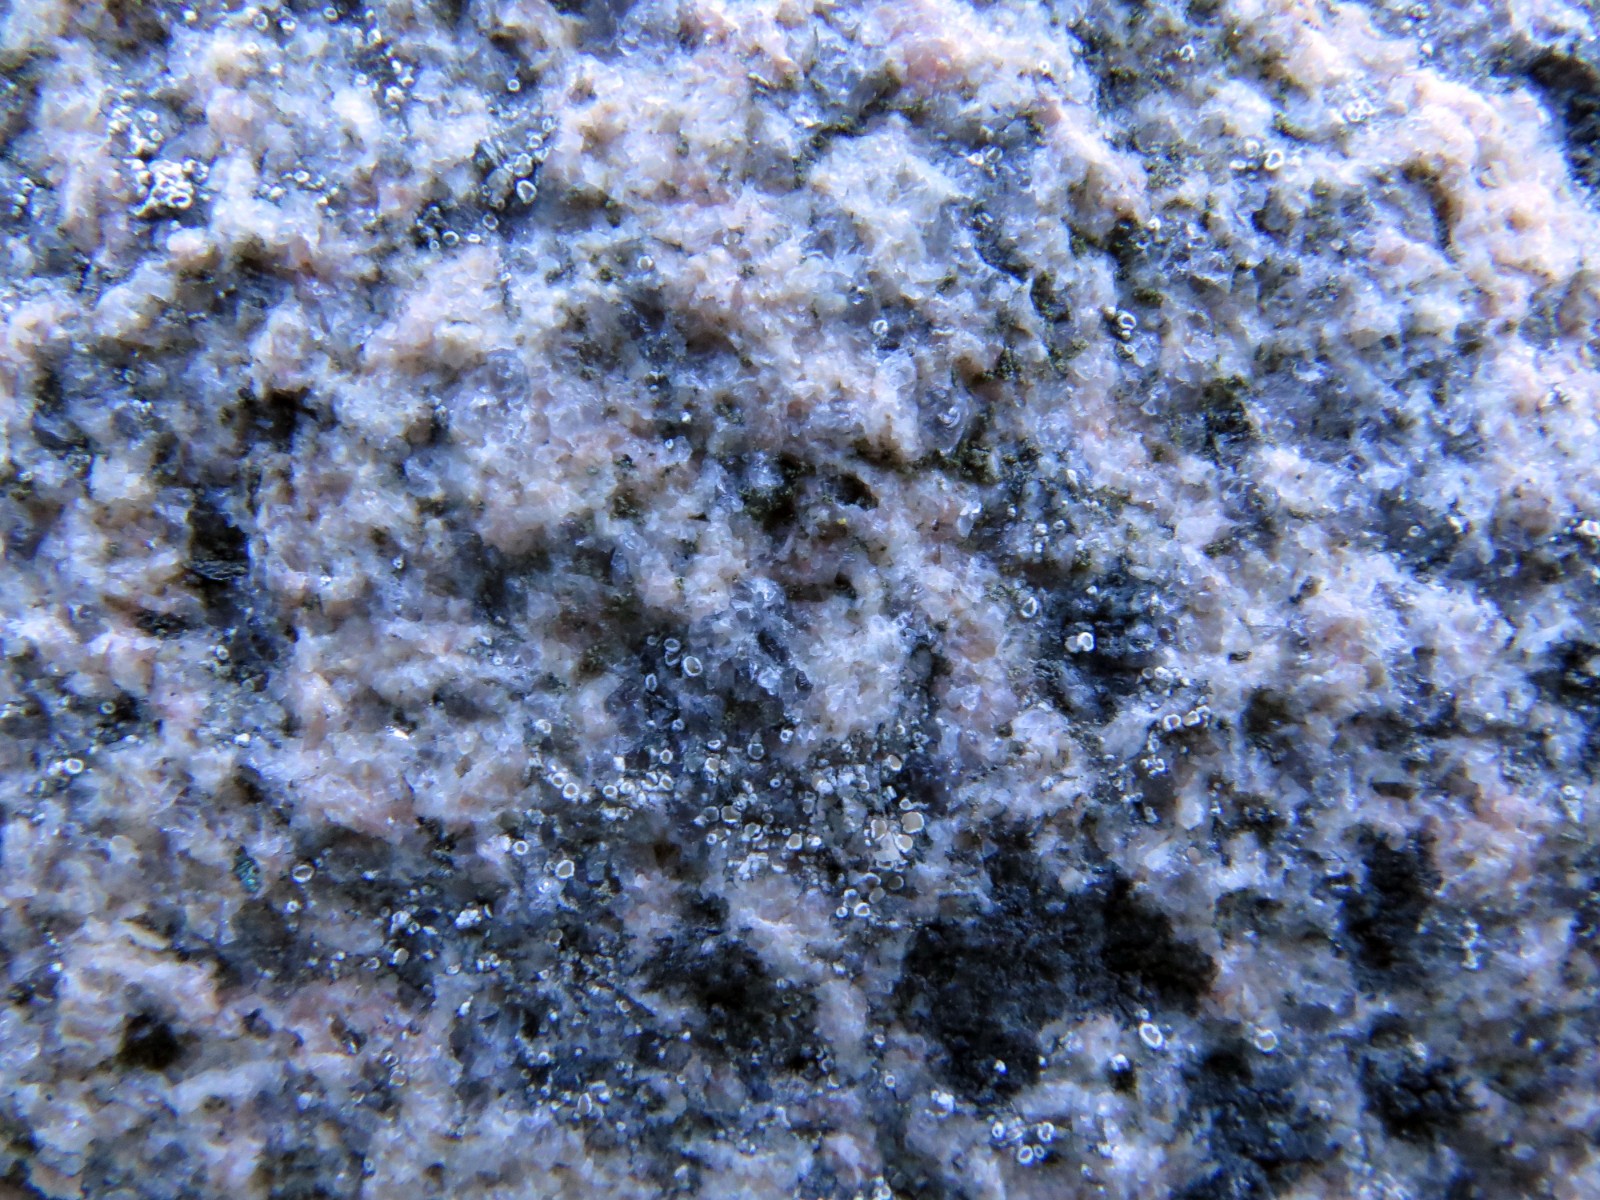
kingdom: Fungi
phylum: Ascomycota
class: Lecanoromycetes
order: Lecanorales
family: Lecanoraceae
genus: Polyozosia
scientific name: Polyozosia dispersa
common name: spredt kantskivelav
